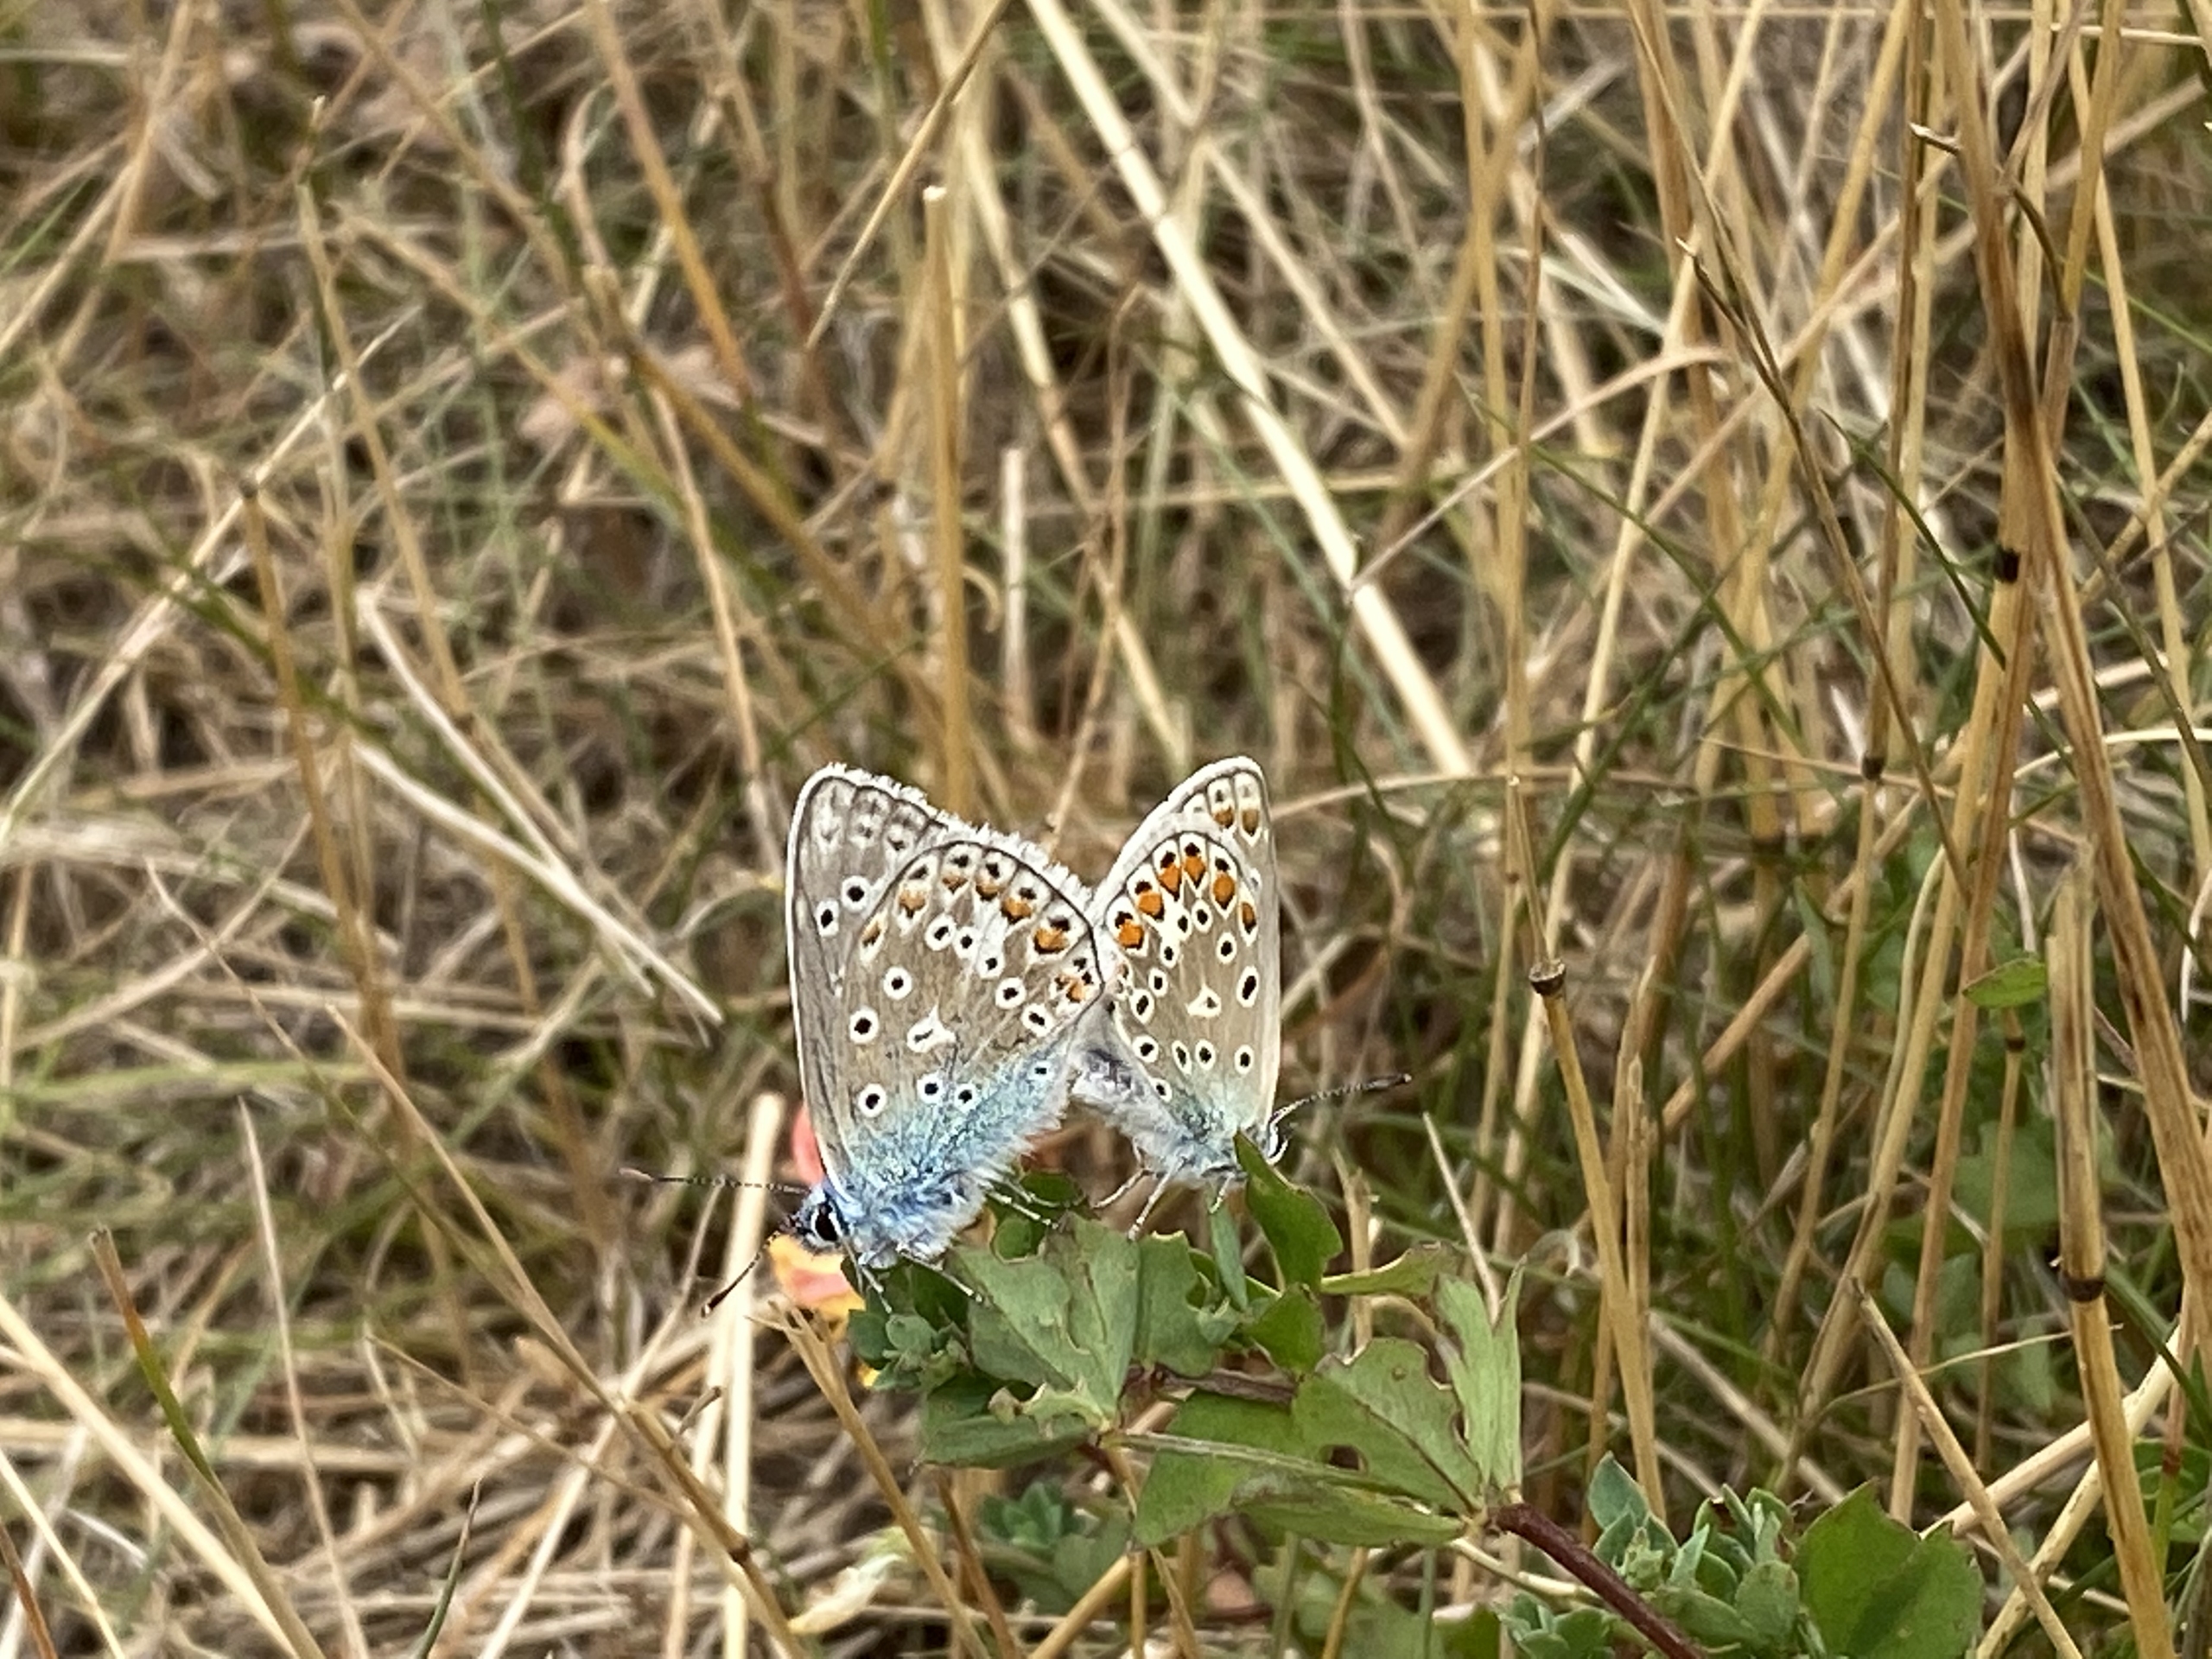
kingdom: Animalia
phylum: Arthropoda
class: Insecta
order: Lepidoptera
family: Lycaenidae
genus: Polyommatus
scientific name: Polyommatus icarus
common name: Almindelig blåfugl
